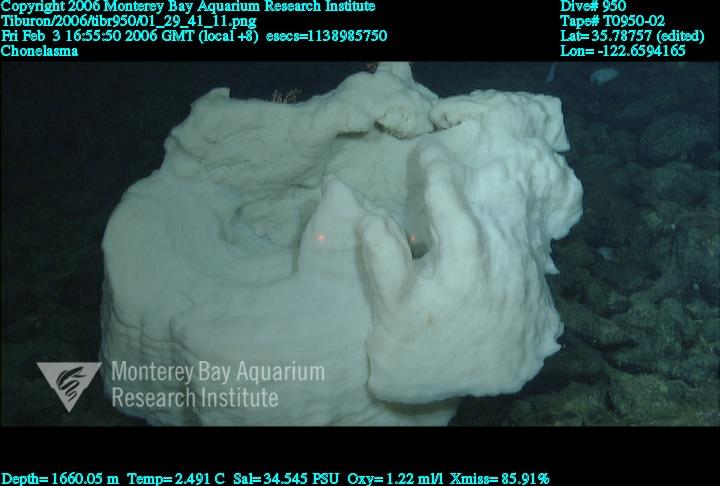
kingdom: Animalia
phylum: Porifera
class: Hexactinellida
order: Sceptrulophora
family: Euretidae
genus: Chonelasma
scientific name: Chonelasma
